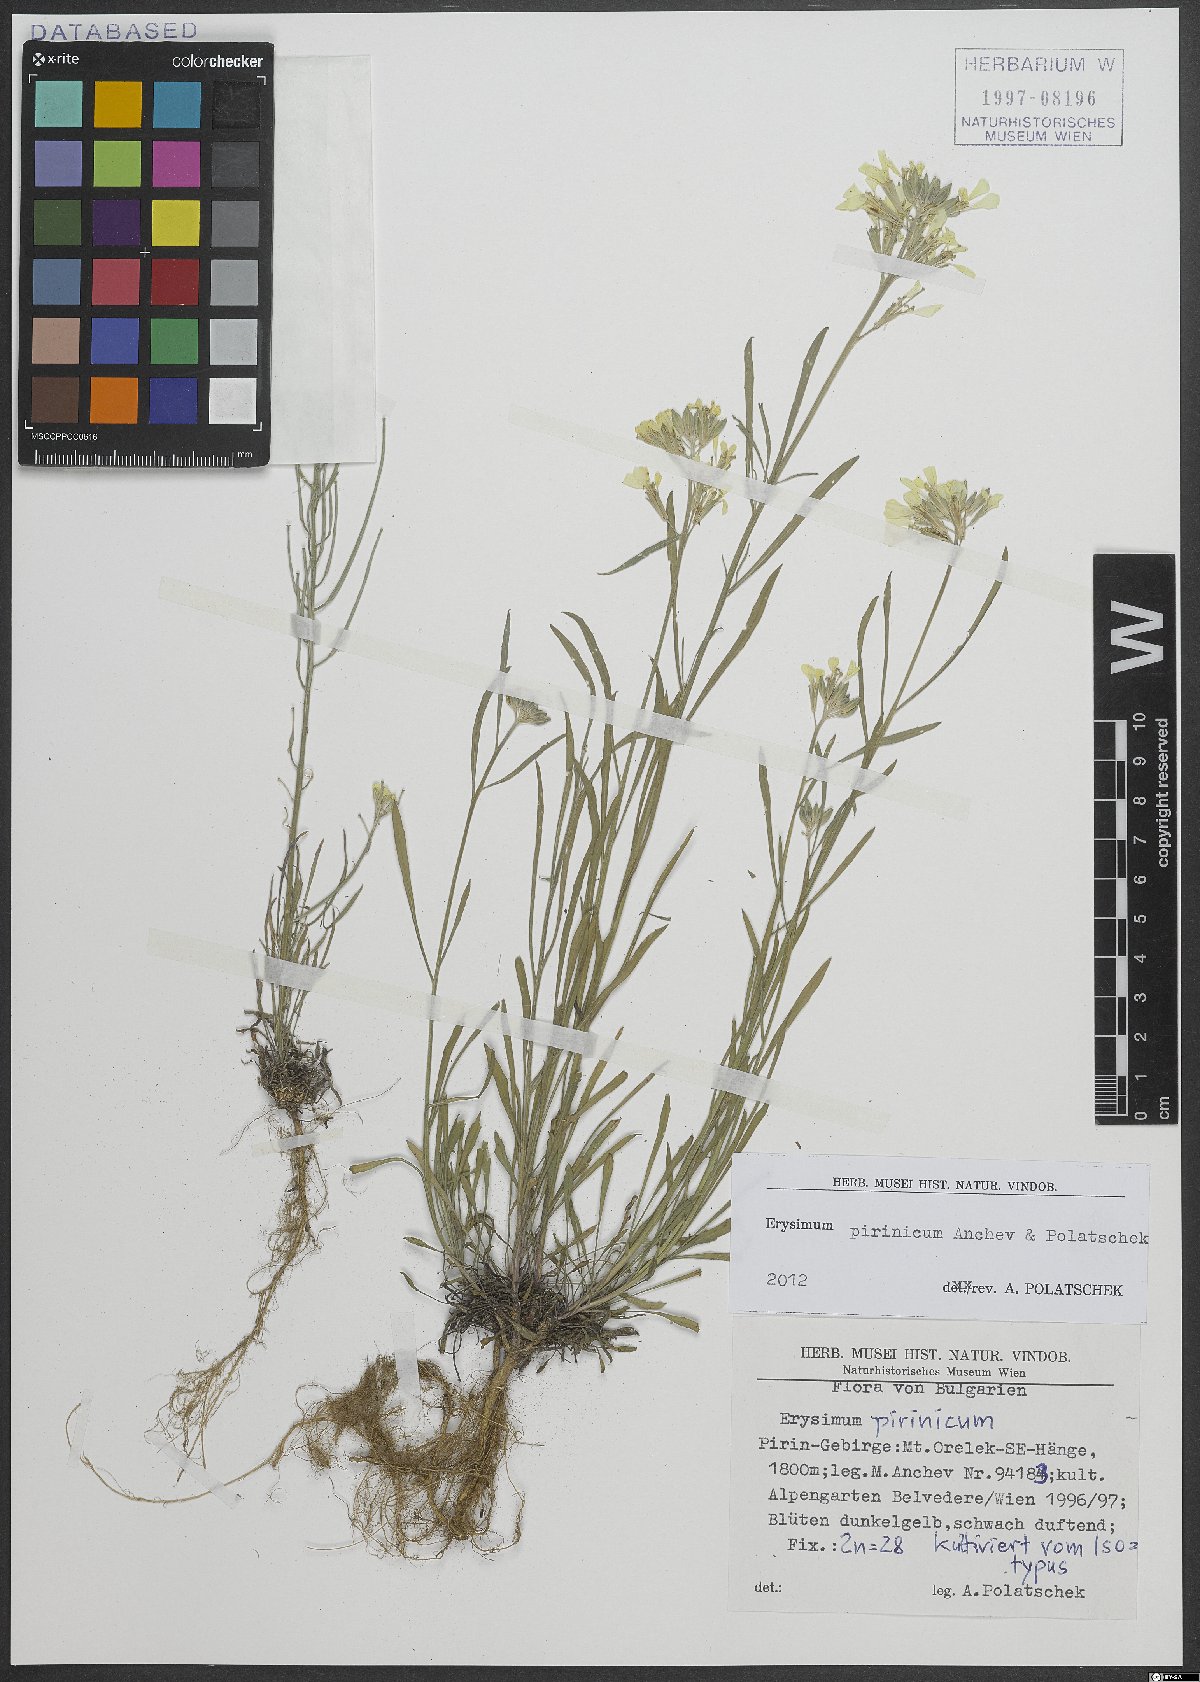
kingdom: Plantae
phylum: Tracheophyta
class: Magnoliopsida
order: Brassicales
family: Brassicaceae
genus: Erysimum
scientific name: Erysimum pirinicum
